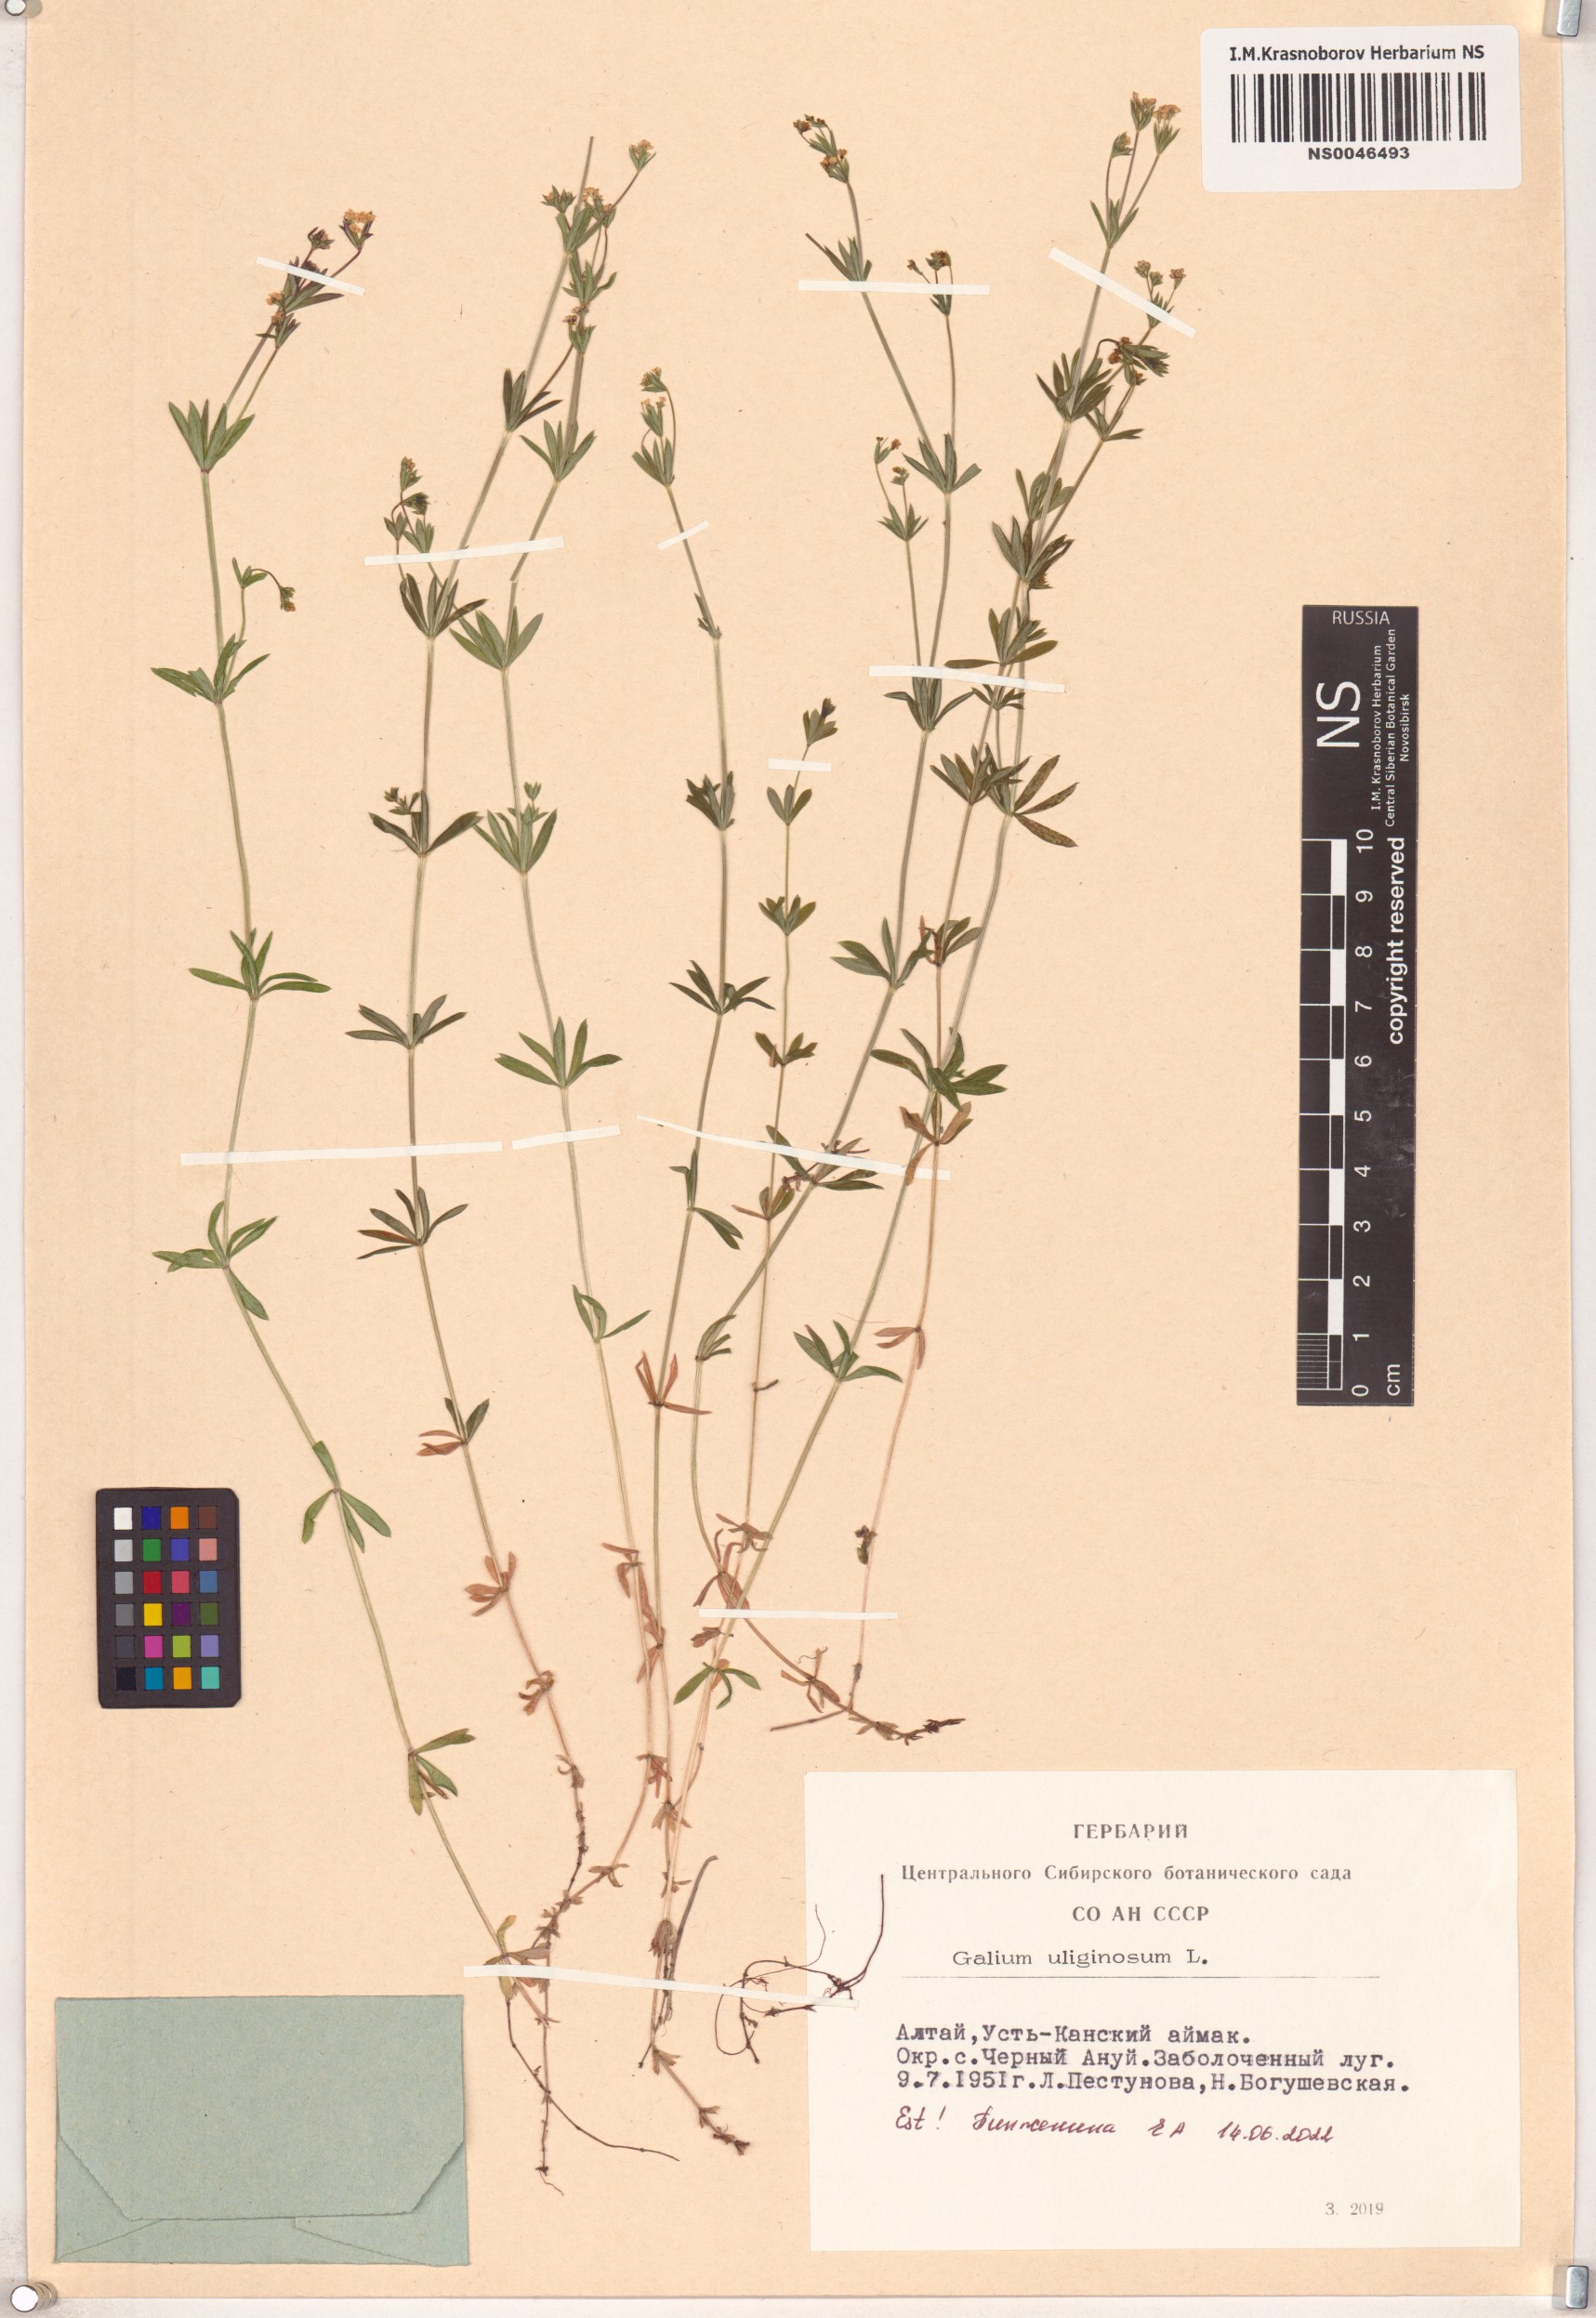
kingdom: Plantae
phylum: Tracheophyta
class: Magnoliopsida
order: Gentianales
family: Rubiaceae
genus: Galium
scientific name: Galium uliginosum
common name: Fen bedstraw
